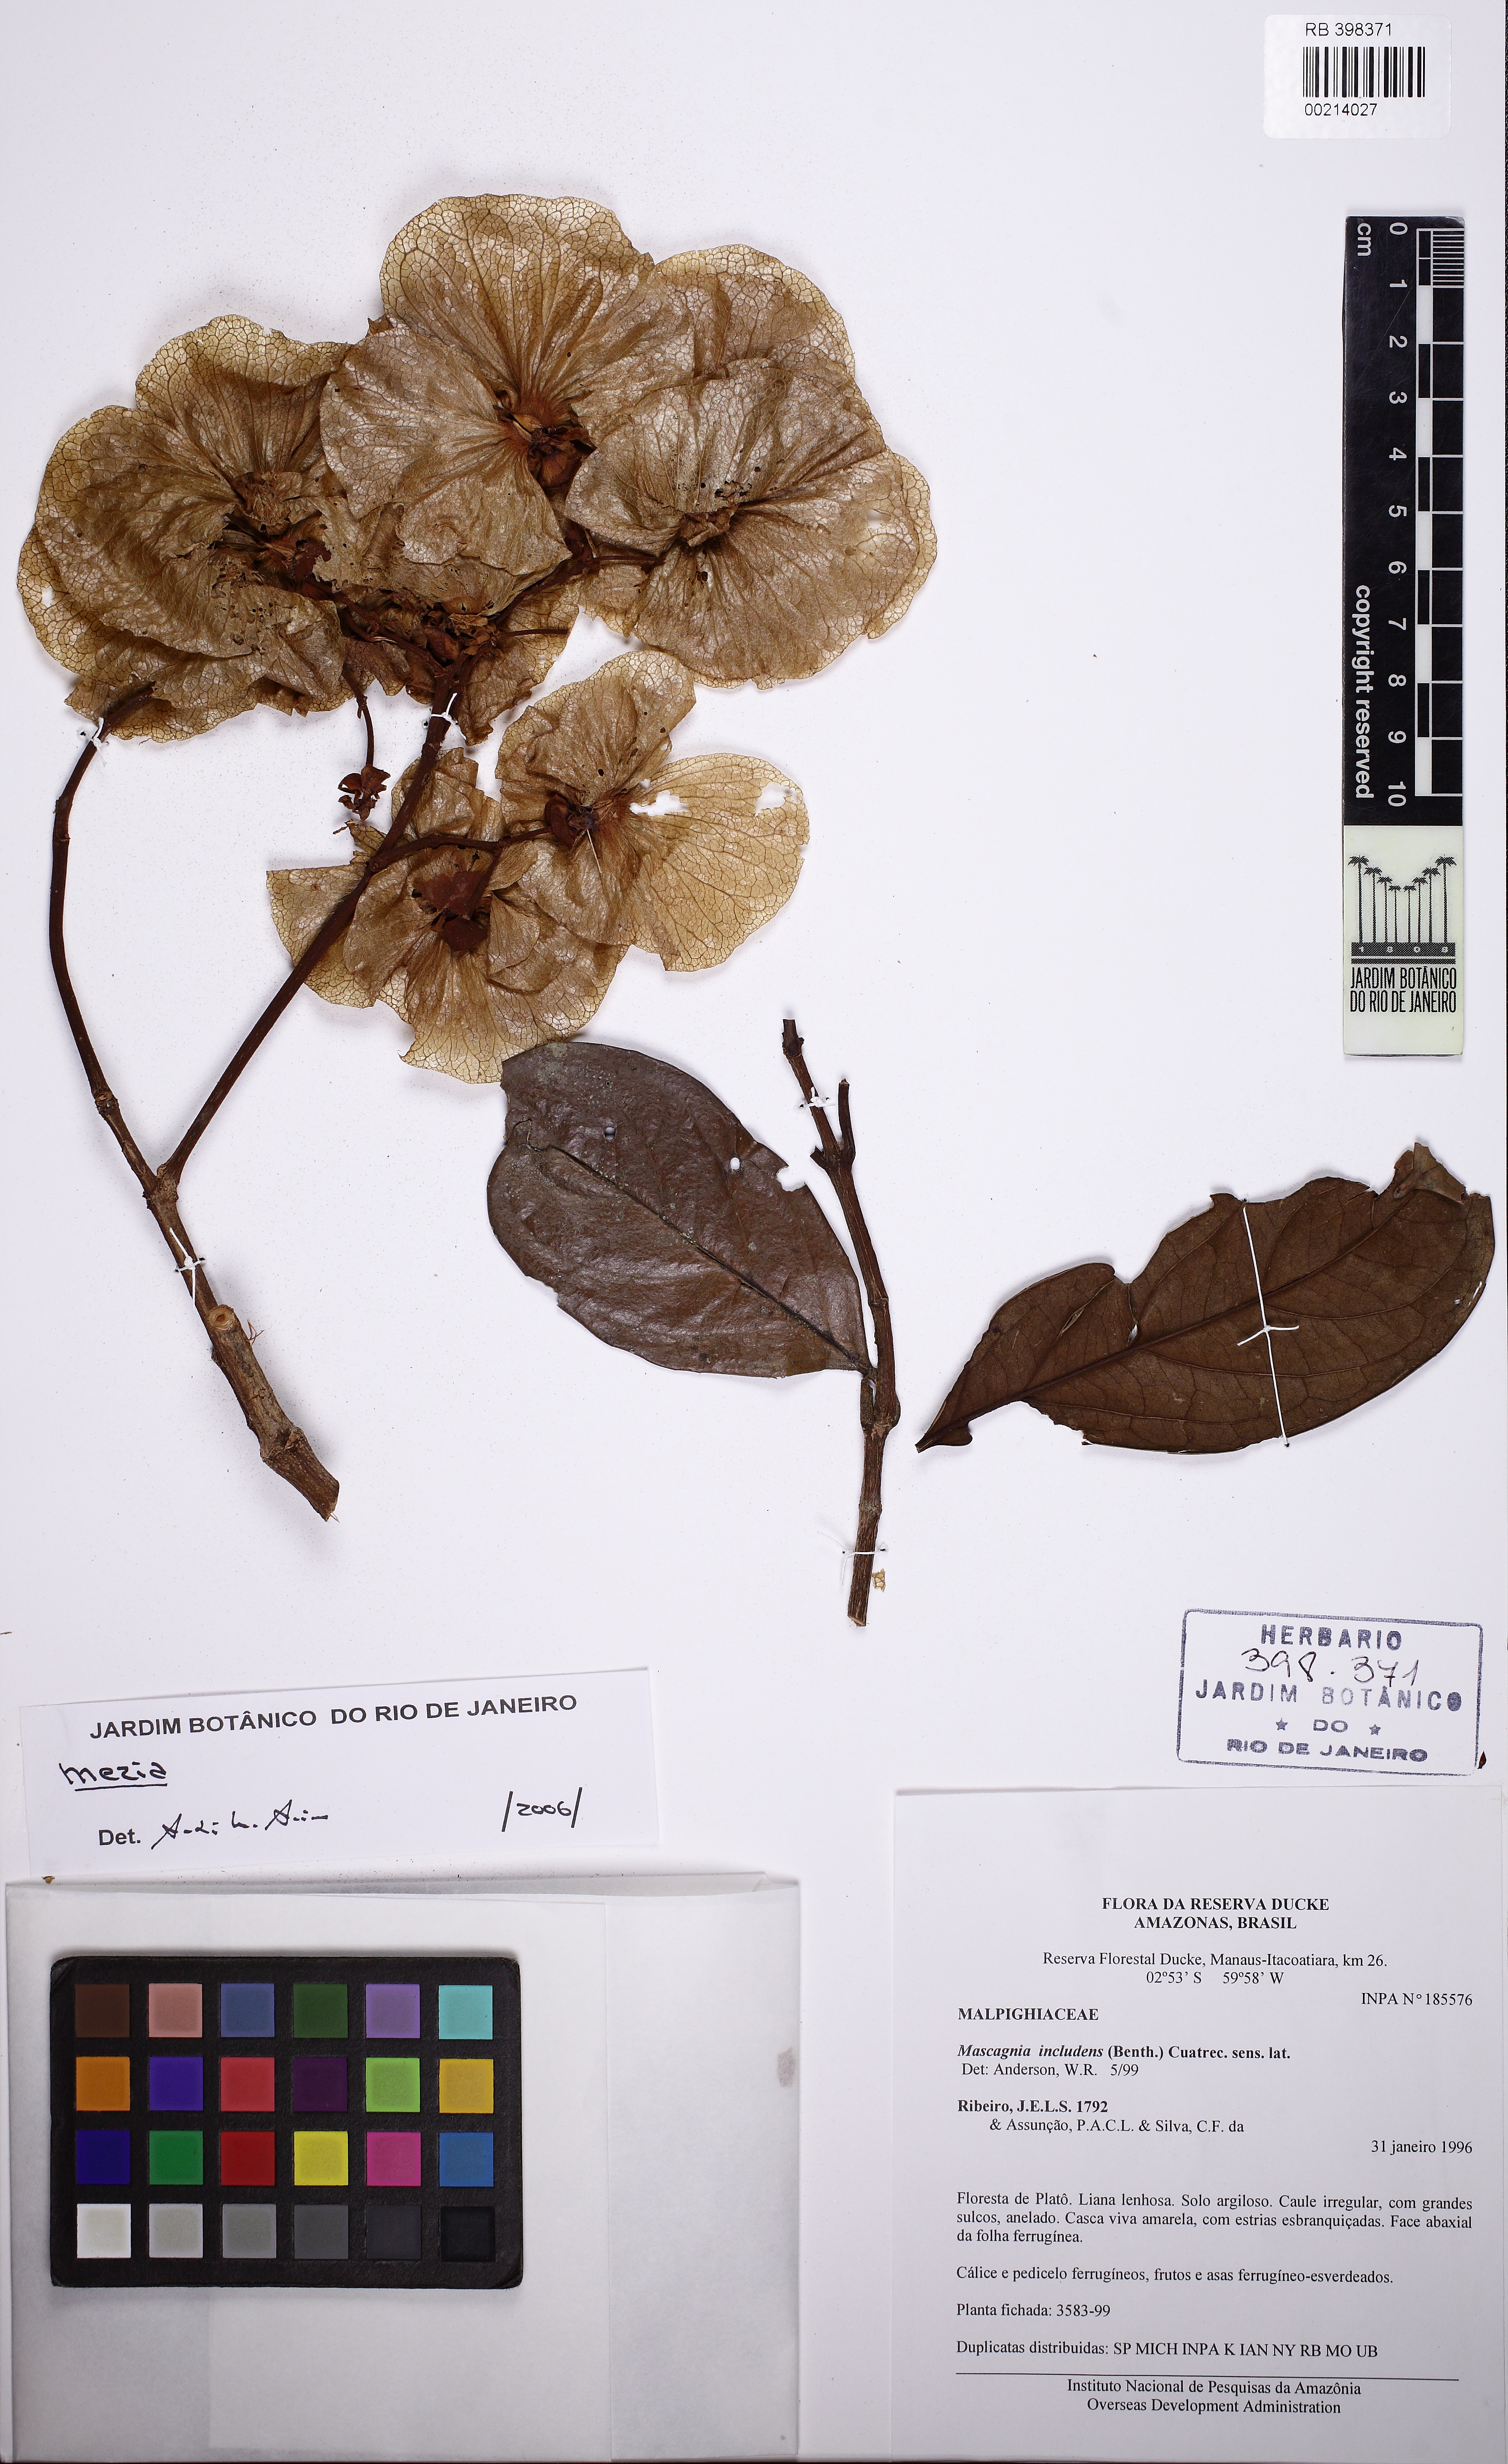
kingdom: Plantae
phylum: Tracheophyta
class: Magnoliopsida
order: Malpighiales
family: Malpighiaceae
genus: Mezia
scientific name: Mezia sericea
